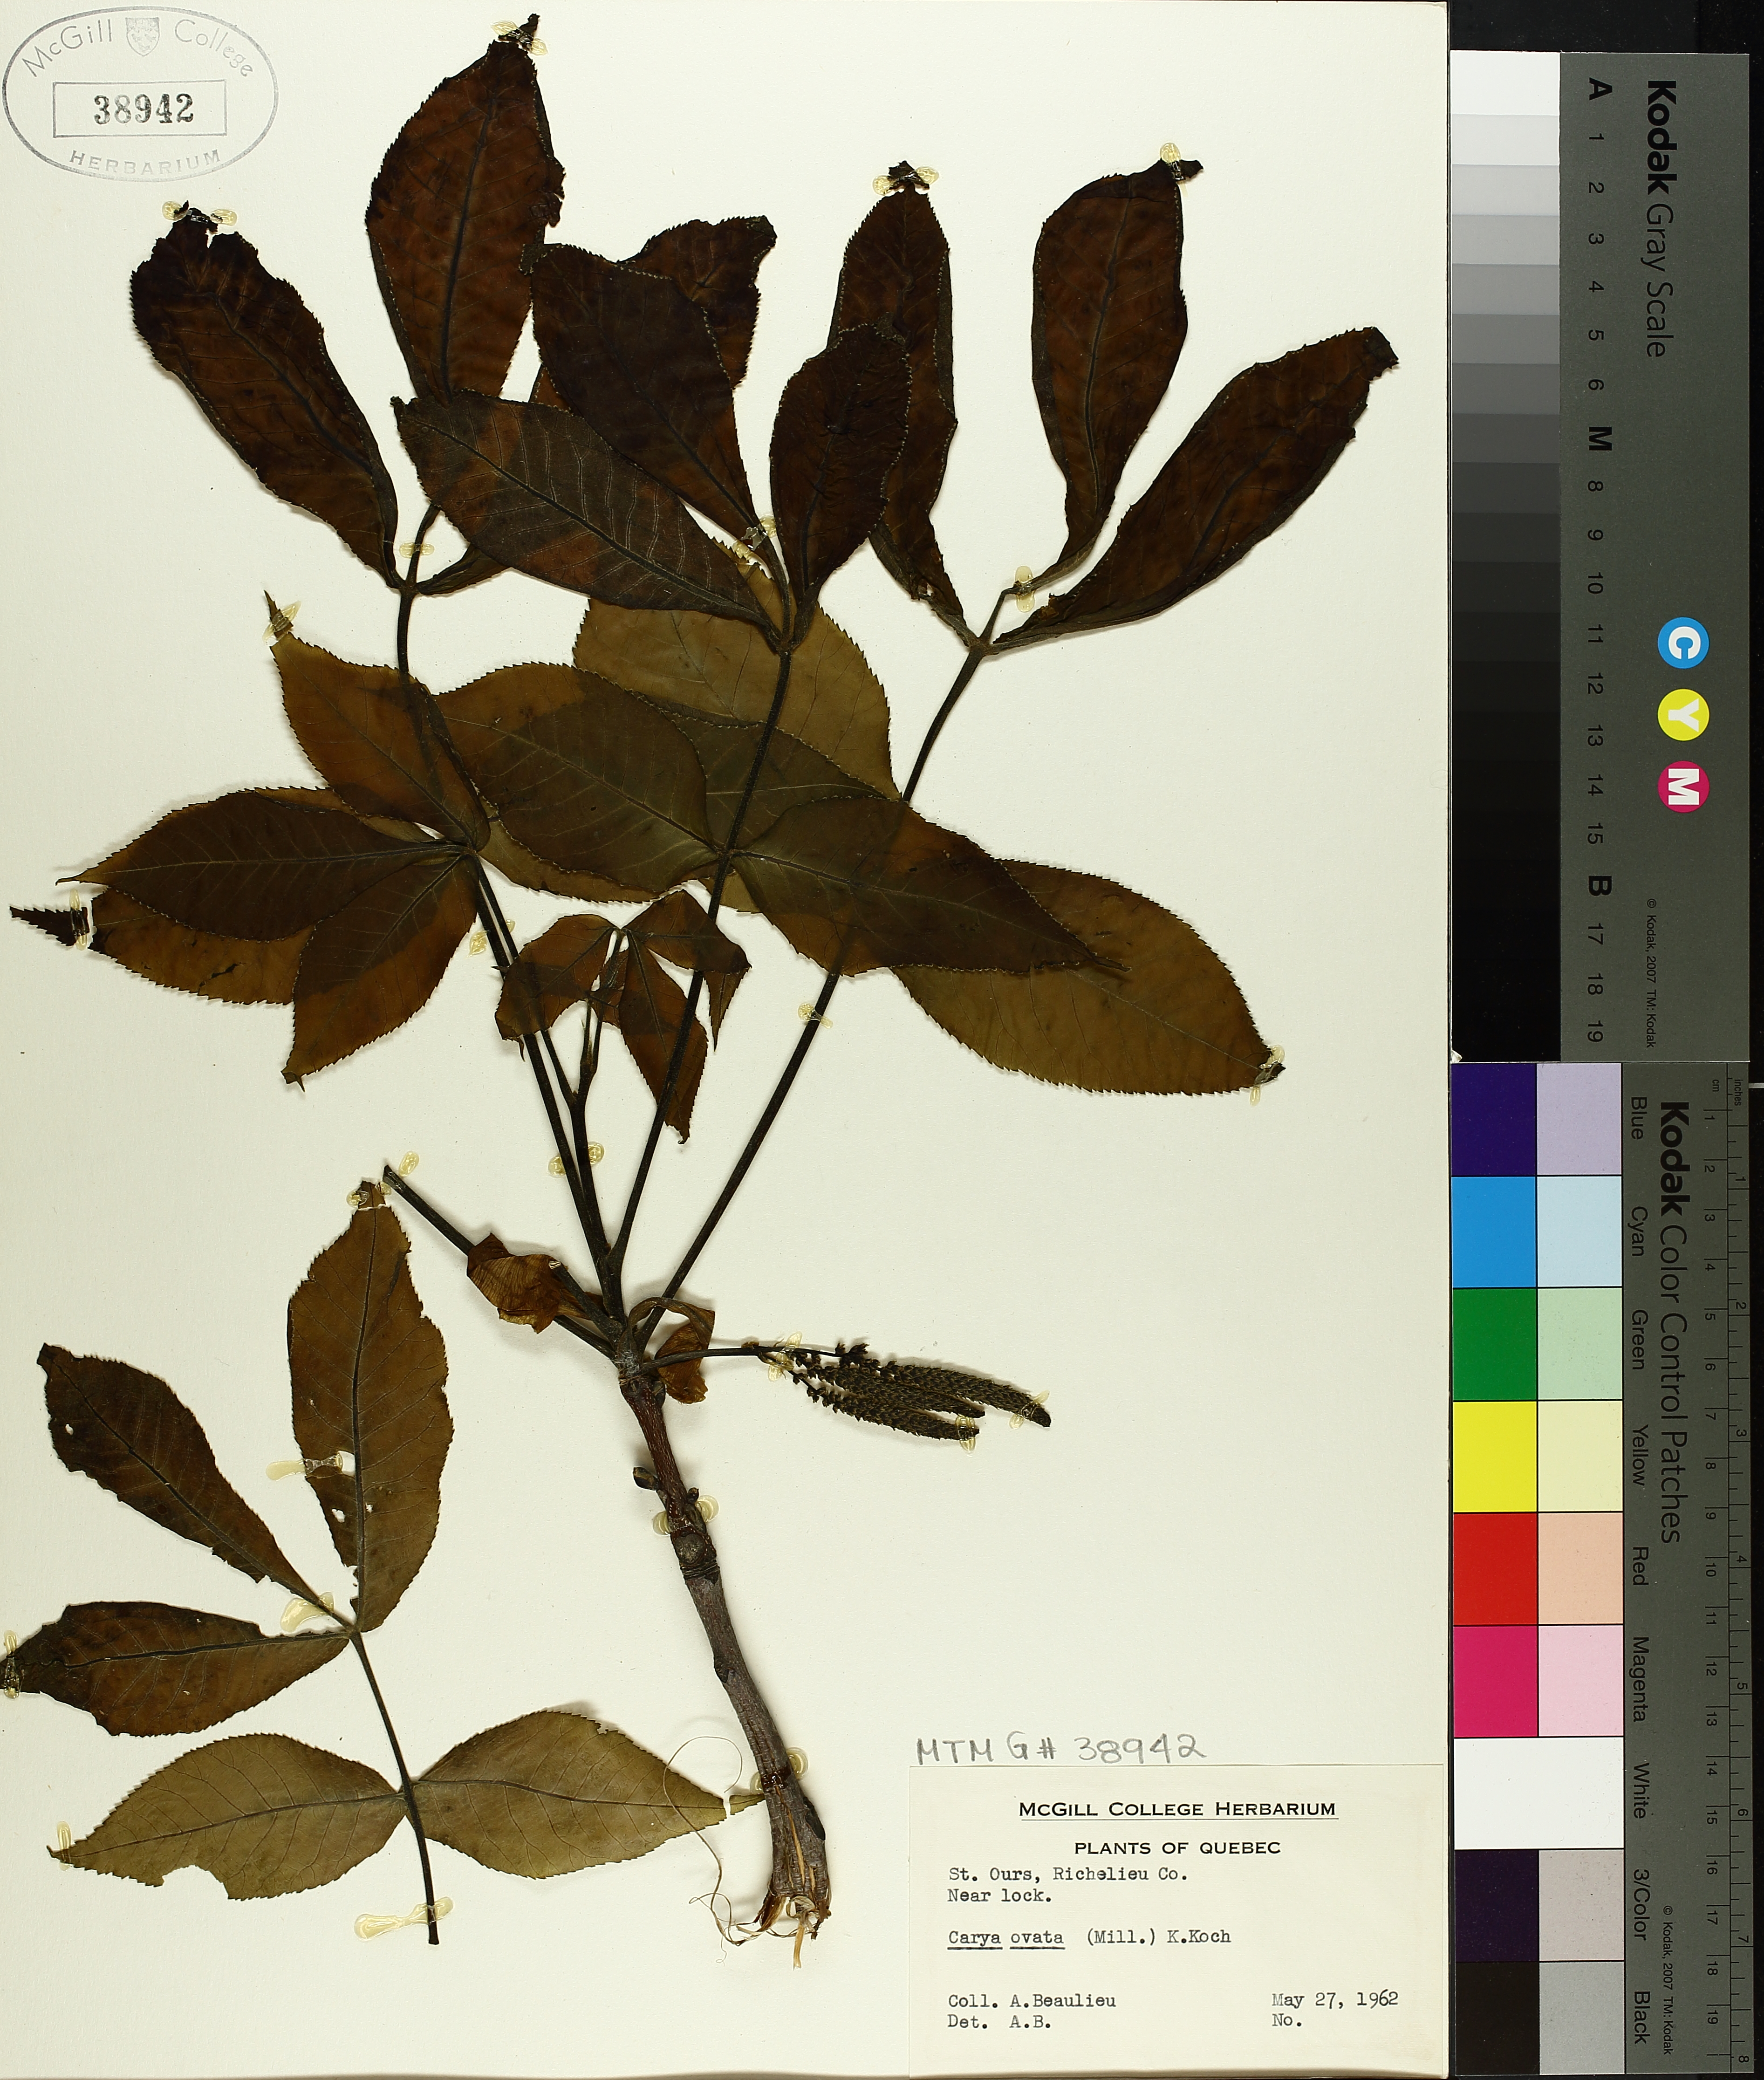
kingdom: Plantae
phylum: Tracheophyta
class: Magnoliopsida
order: Fagales
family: Juglandaceae
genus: Carya
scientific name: Carya ovata
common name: Shagbark hickory
